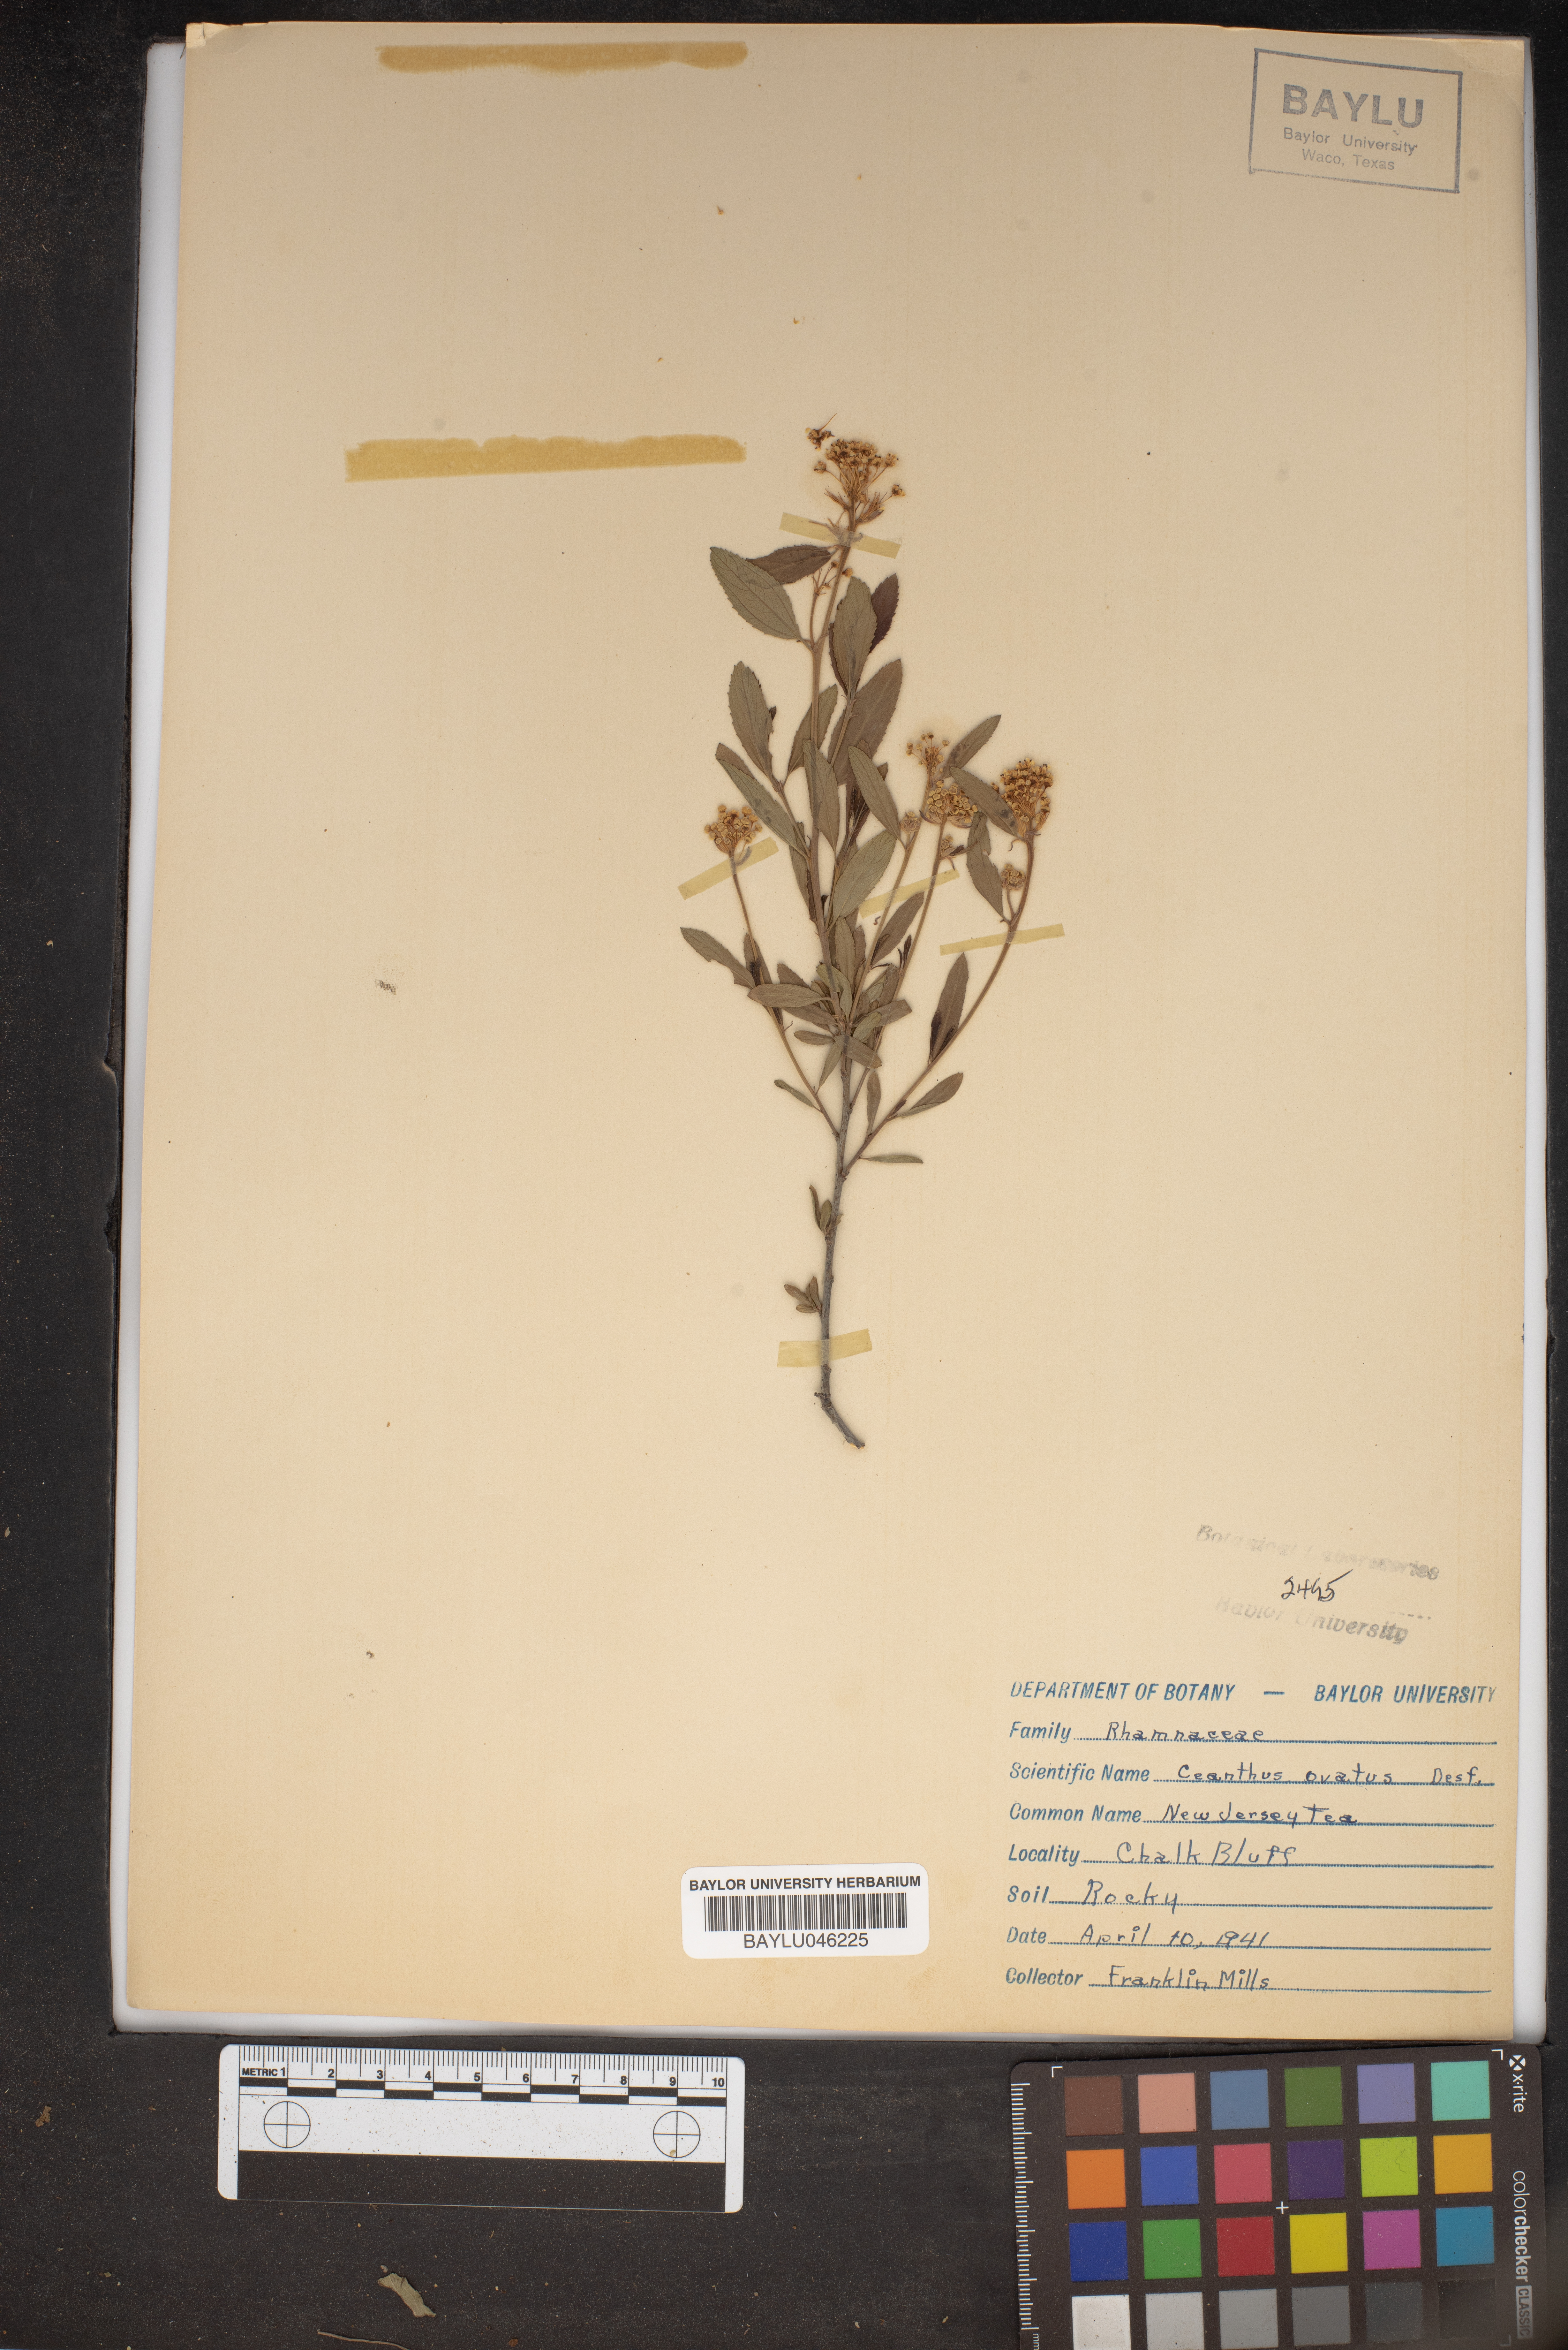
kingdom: Plantae
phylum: Tracheophyta
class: Magnoliopsida
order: Rosales
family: Rhamnaceae
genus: Ceanothus
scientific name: Ceanothus herbaceus
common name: Inland ceanothus
